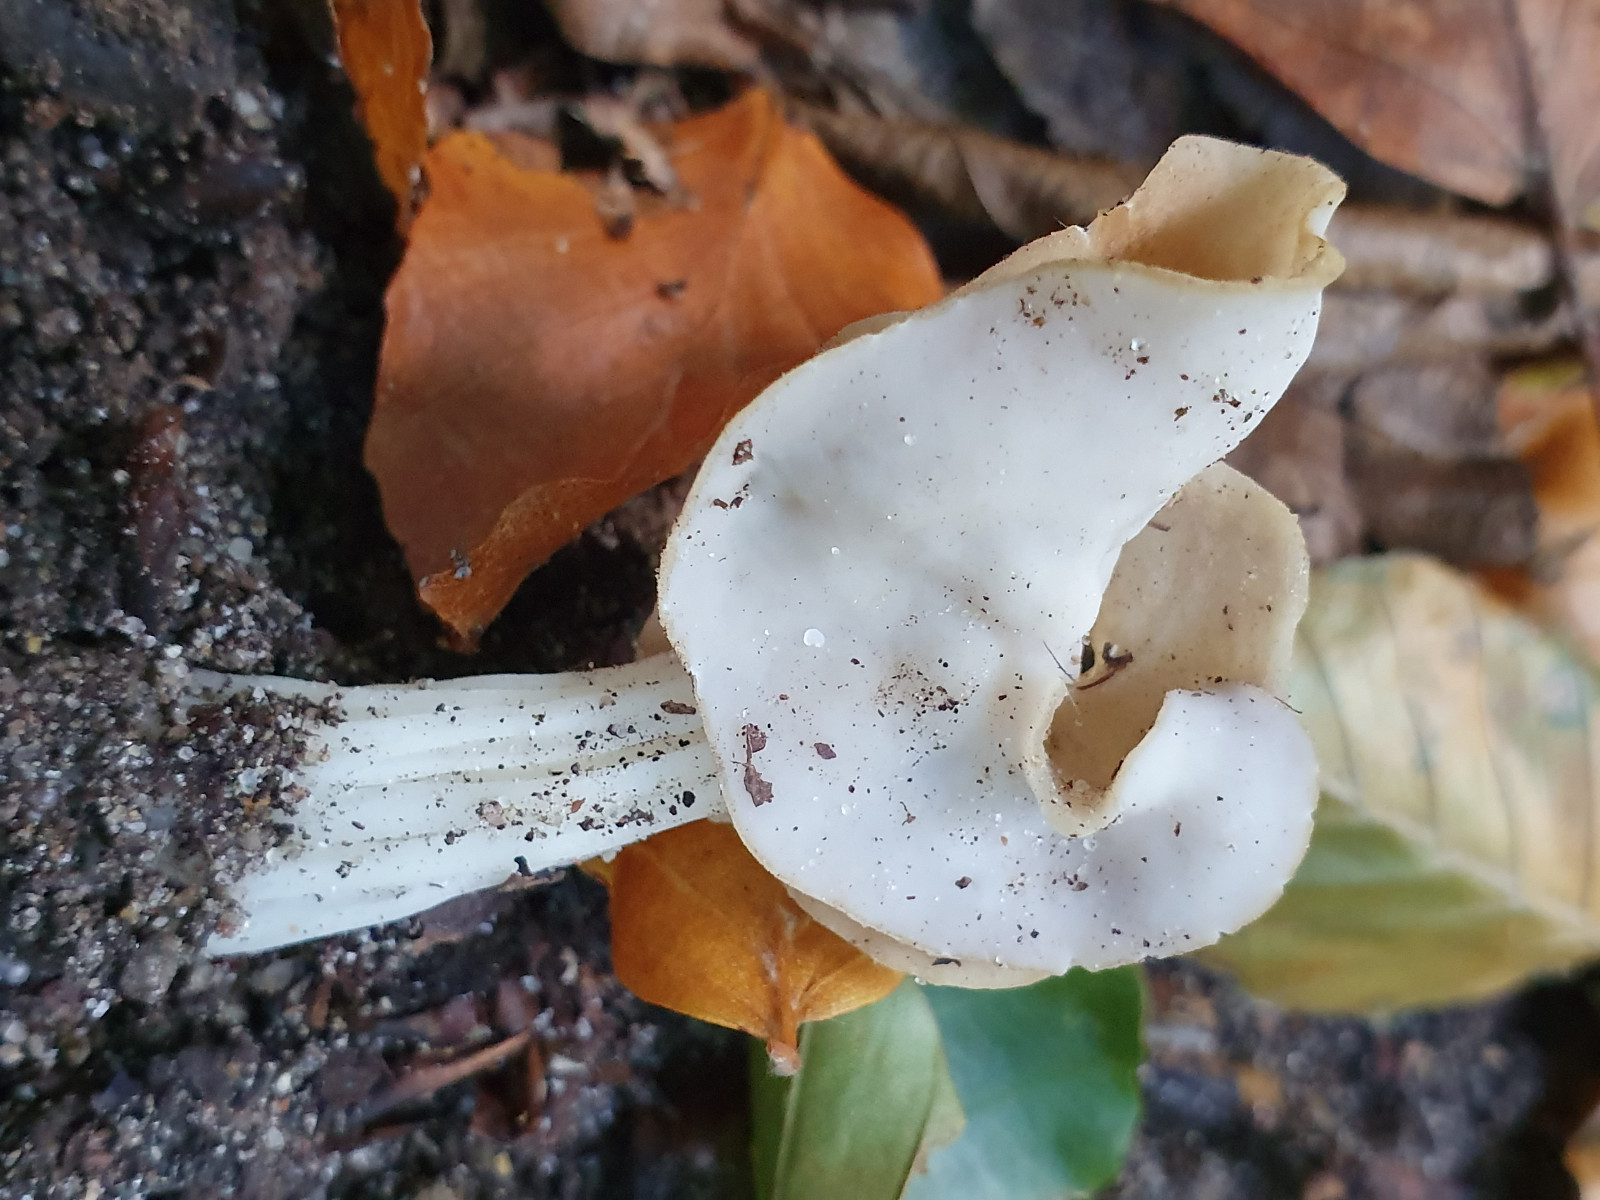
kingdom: Fungi
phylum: Ascomycota
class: Pezizomycetes
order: Pezizales
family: Helvellaceae
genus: Helvella
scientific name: Helvella crispa
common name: kruset foldhat
